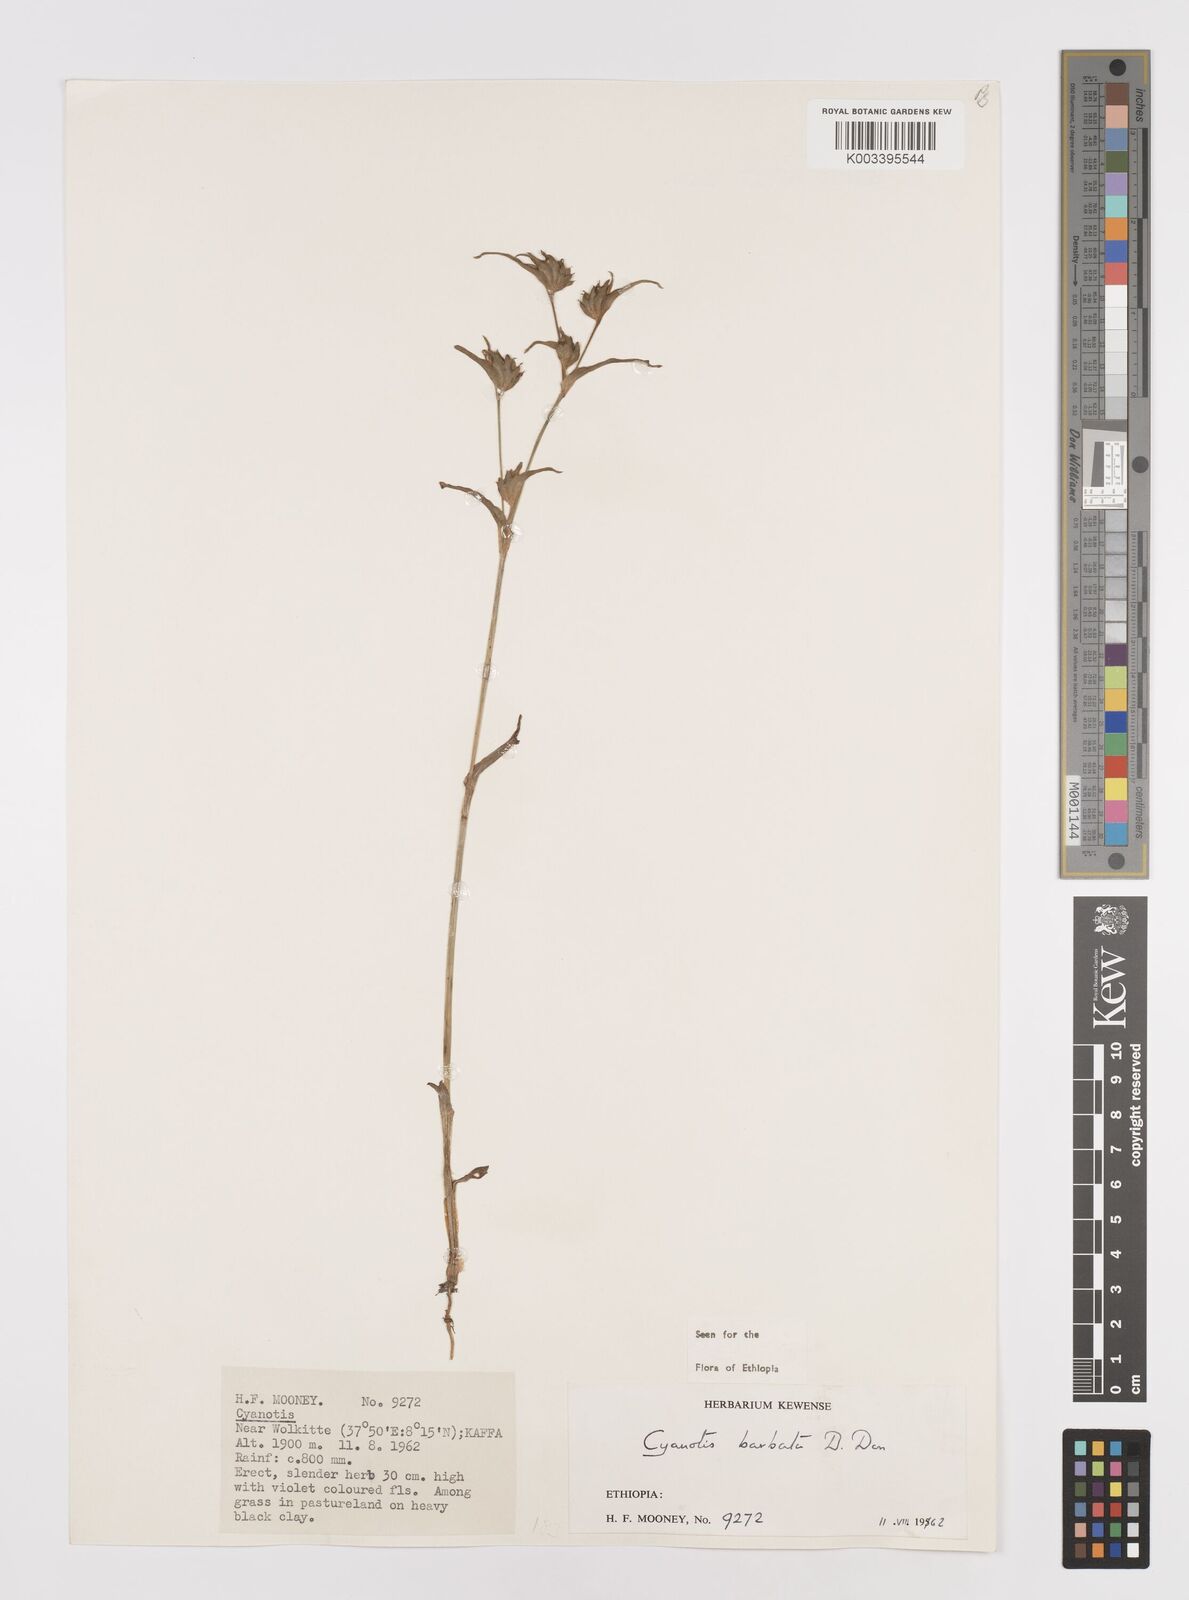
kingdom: Plantae
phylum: Tracheophyta
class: Liliopsida
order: Commelinales
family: Commelinaceae
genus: Cyanotis
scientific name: Cyanotis vaga
